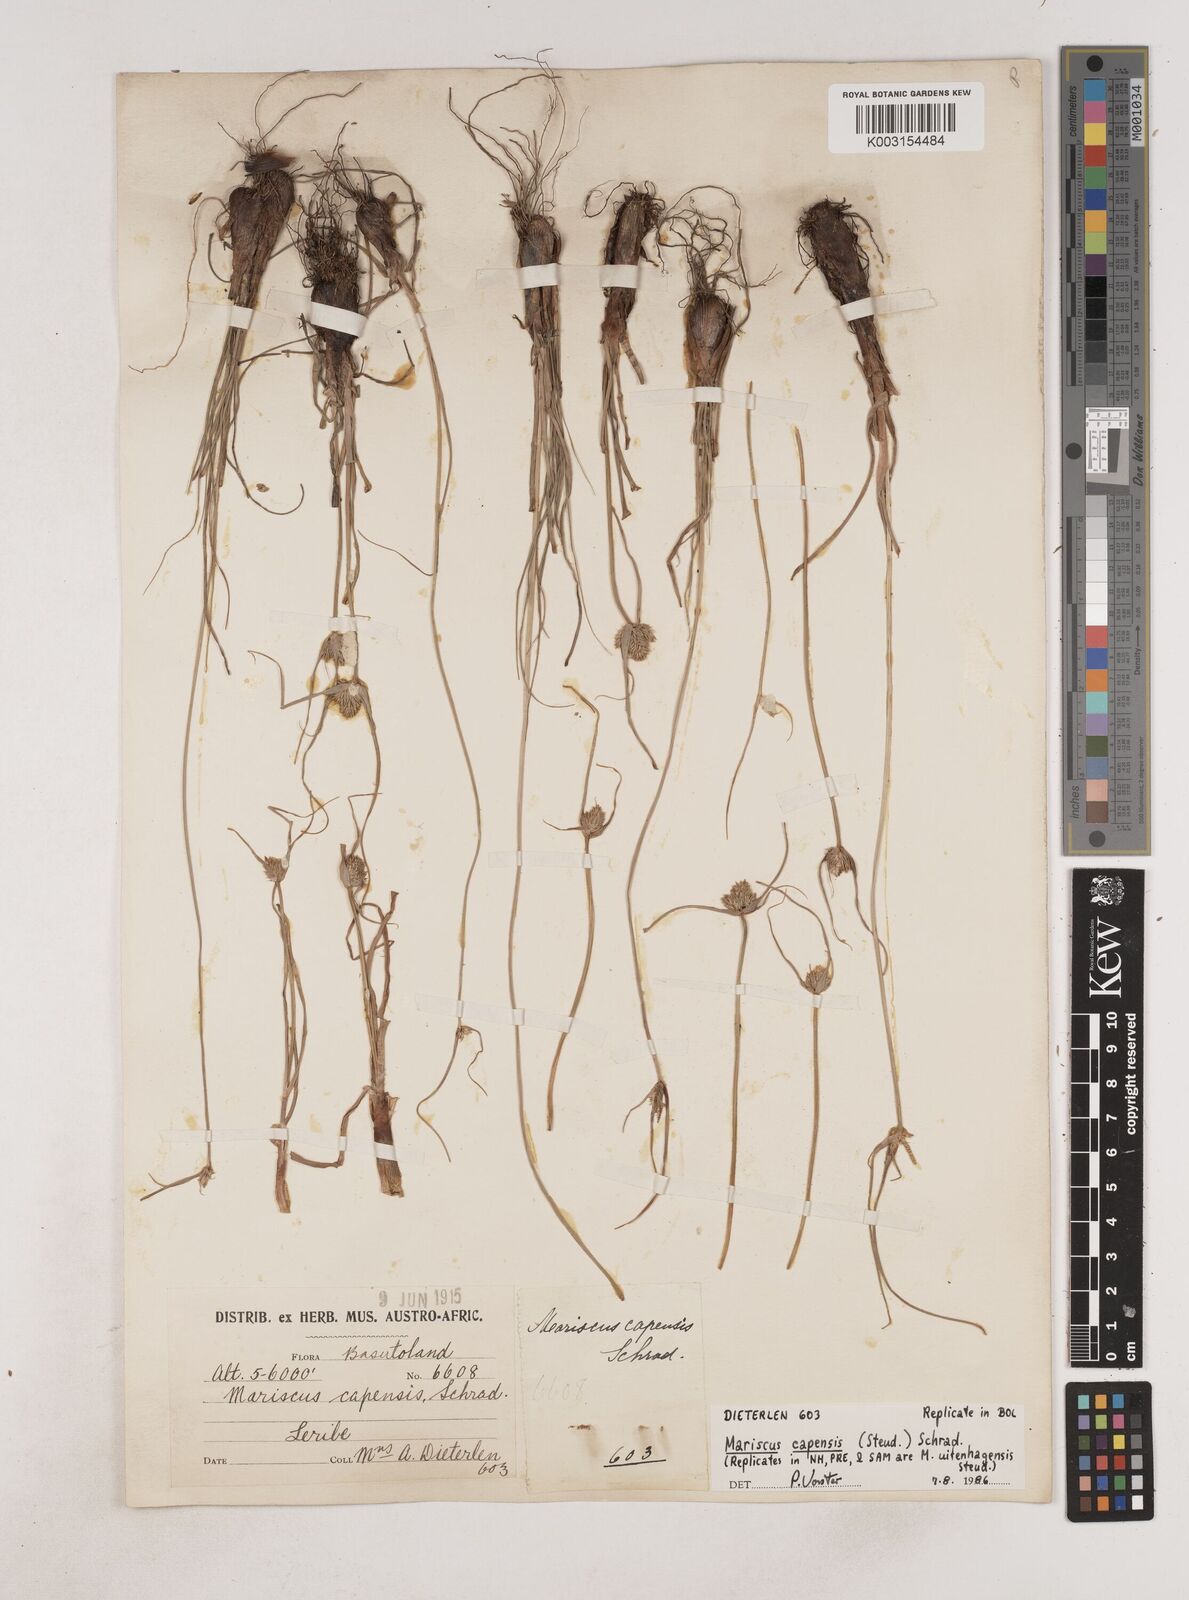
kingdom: Plantae
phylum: Tracheophyta
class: Liliopsida
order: Poales
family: Cyperaceae
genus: Cyperus
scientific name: Cyperus capensis
